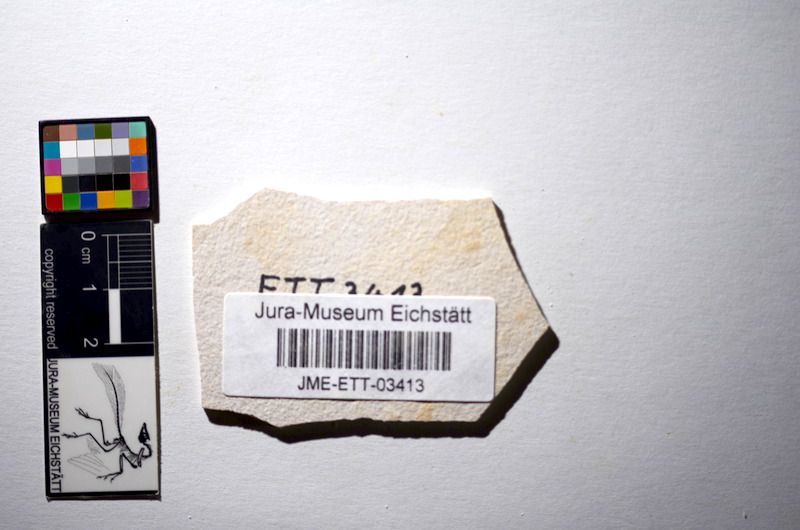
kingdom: Animalia
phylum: Chordata
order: Salmoniformes
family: Orthogonikleithridae
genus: Orthogonikleithrus
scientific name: Orthogonikleithrus hoelli
